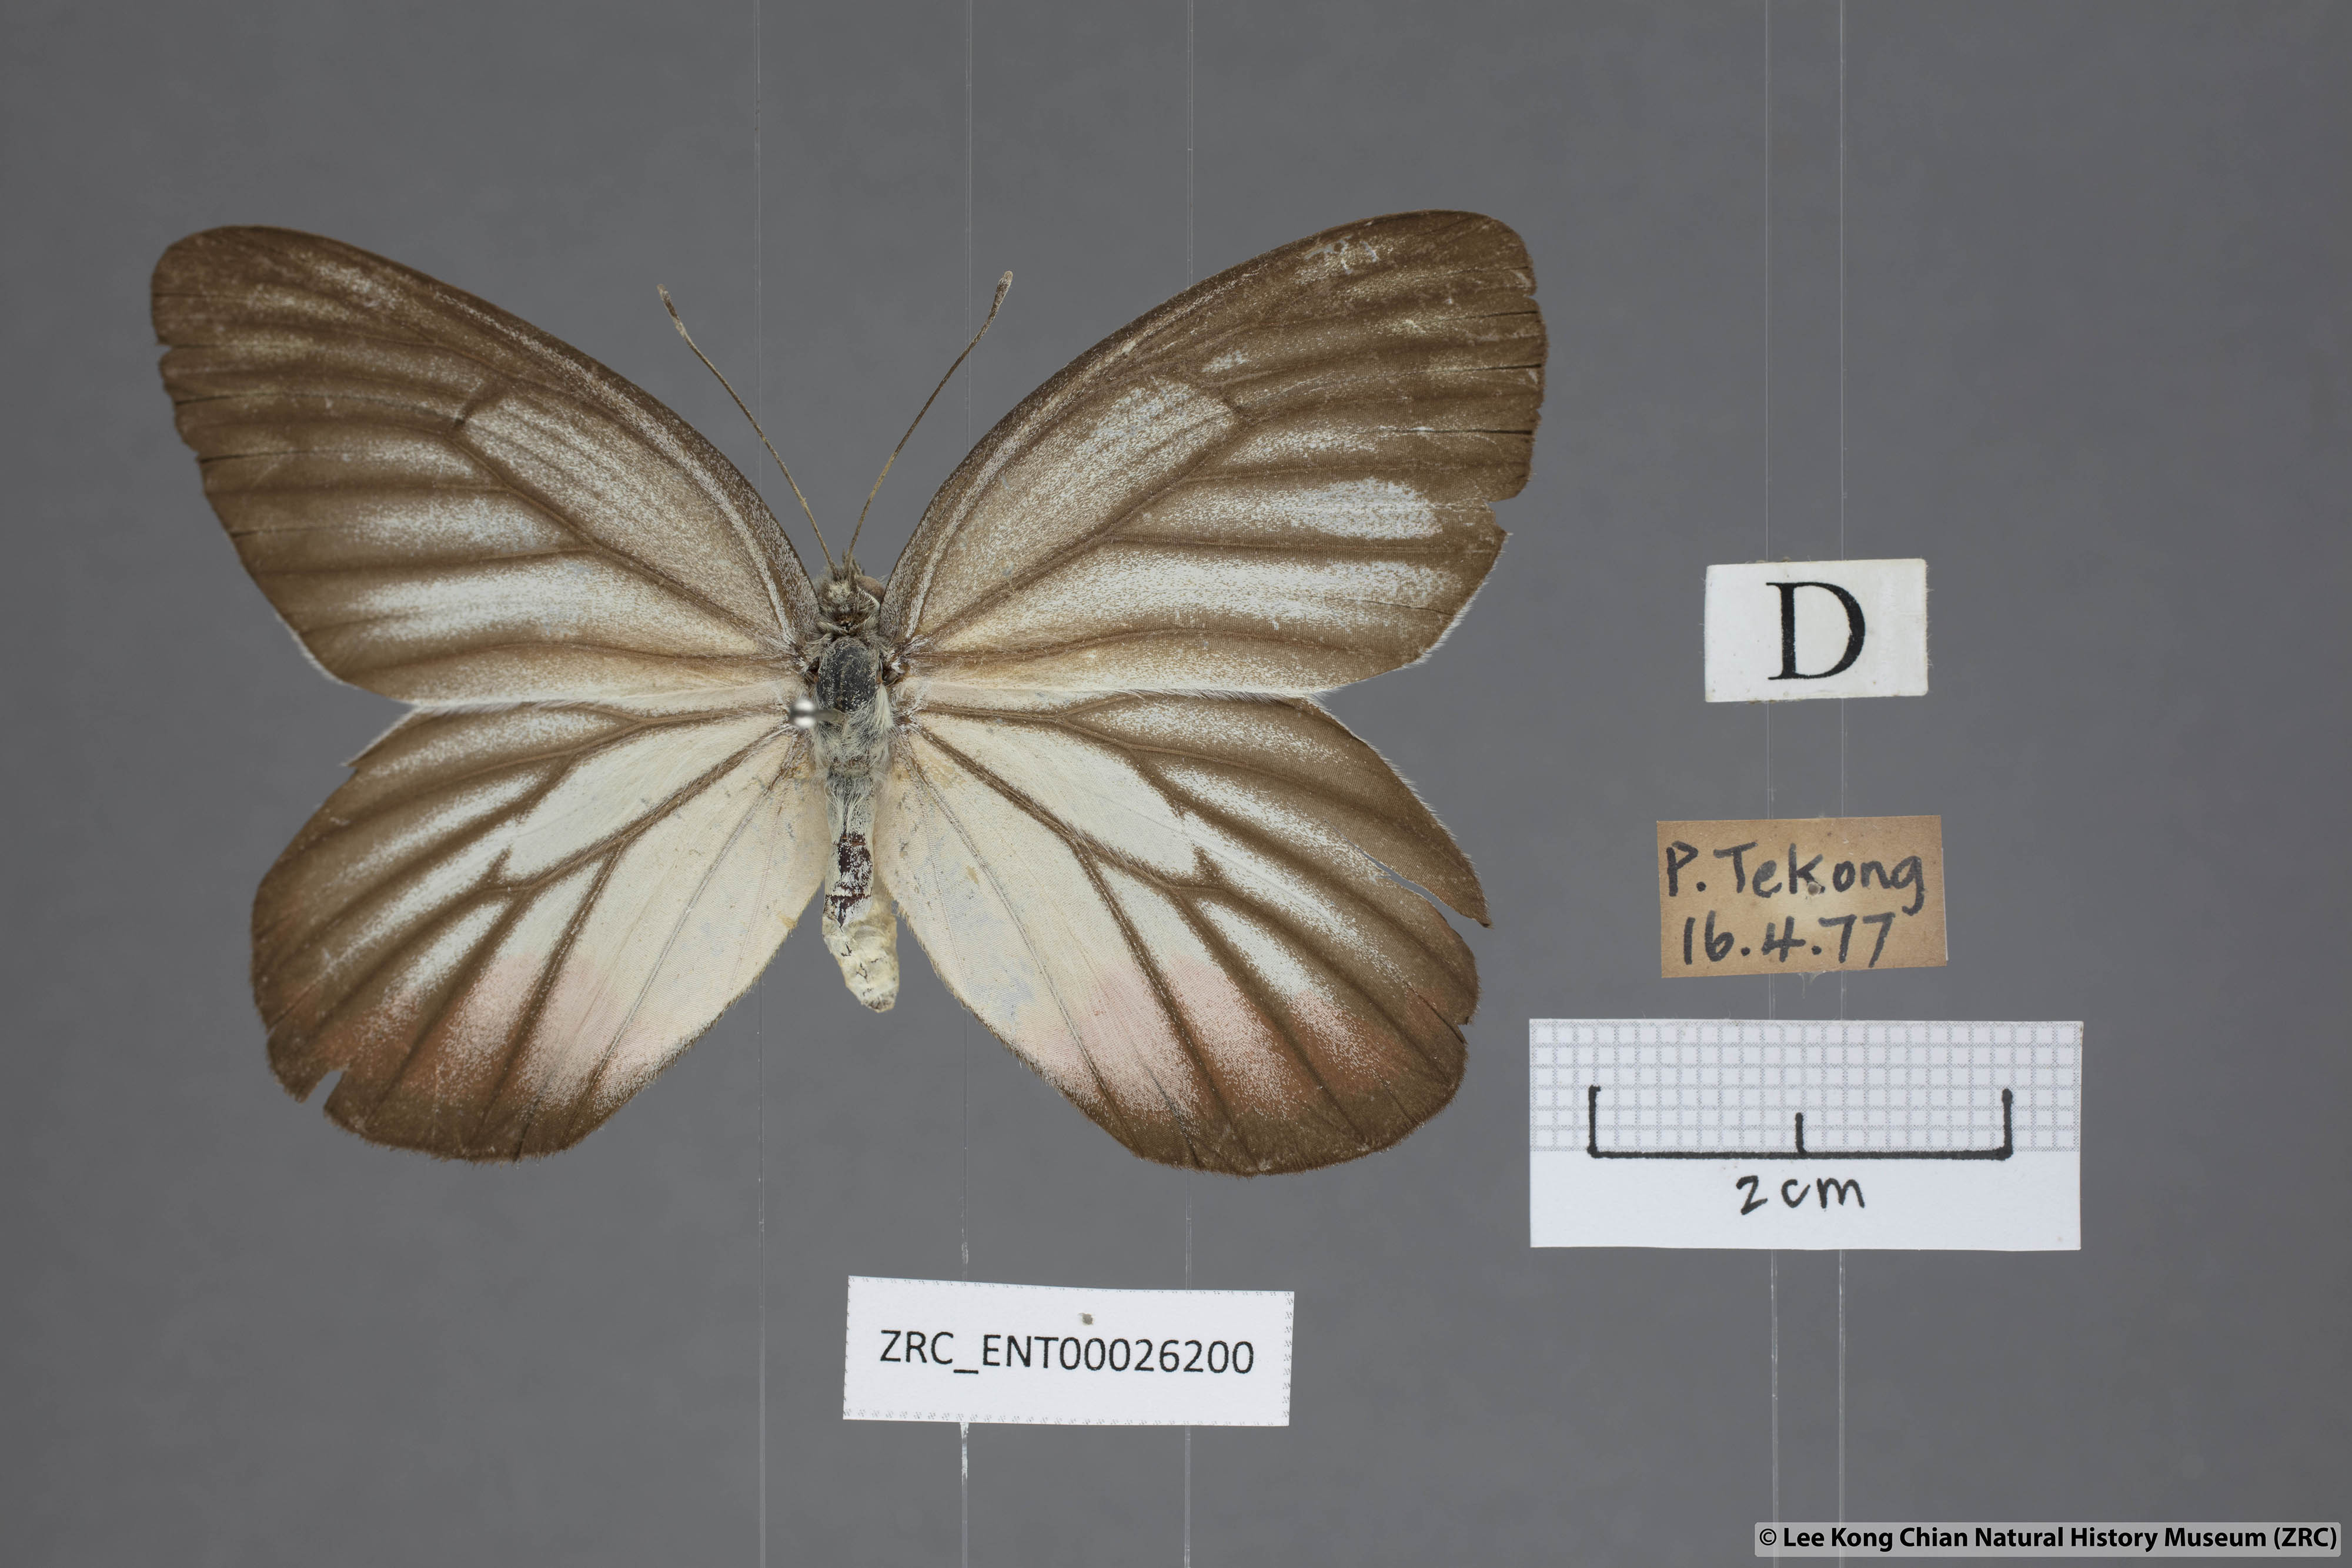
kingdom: Animalia
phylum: Arthropoda
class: Insecta
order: Lepidoptera
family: Pieridae
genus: Delias
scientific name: Delias hyparete
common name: Painted jezebel
